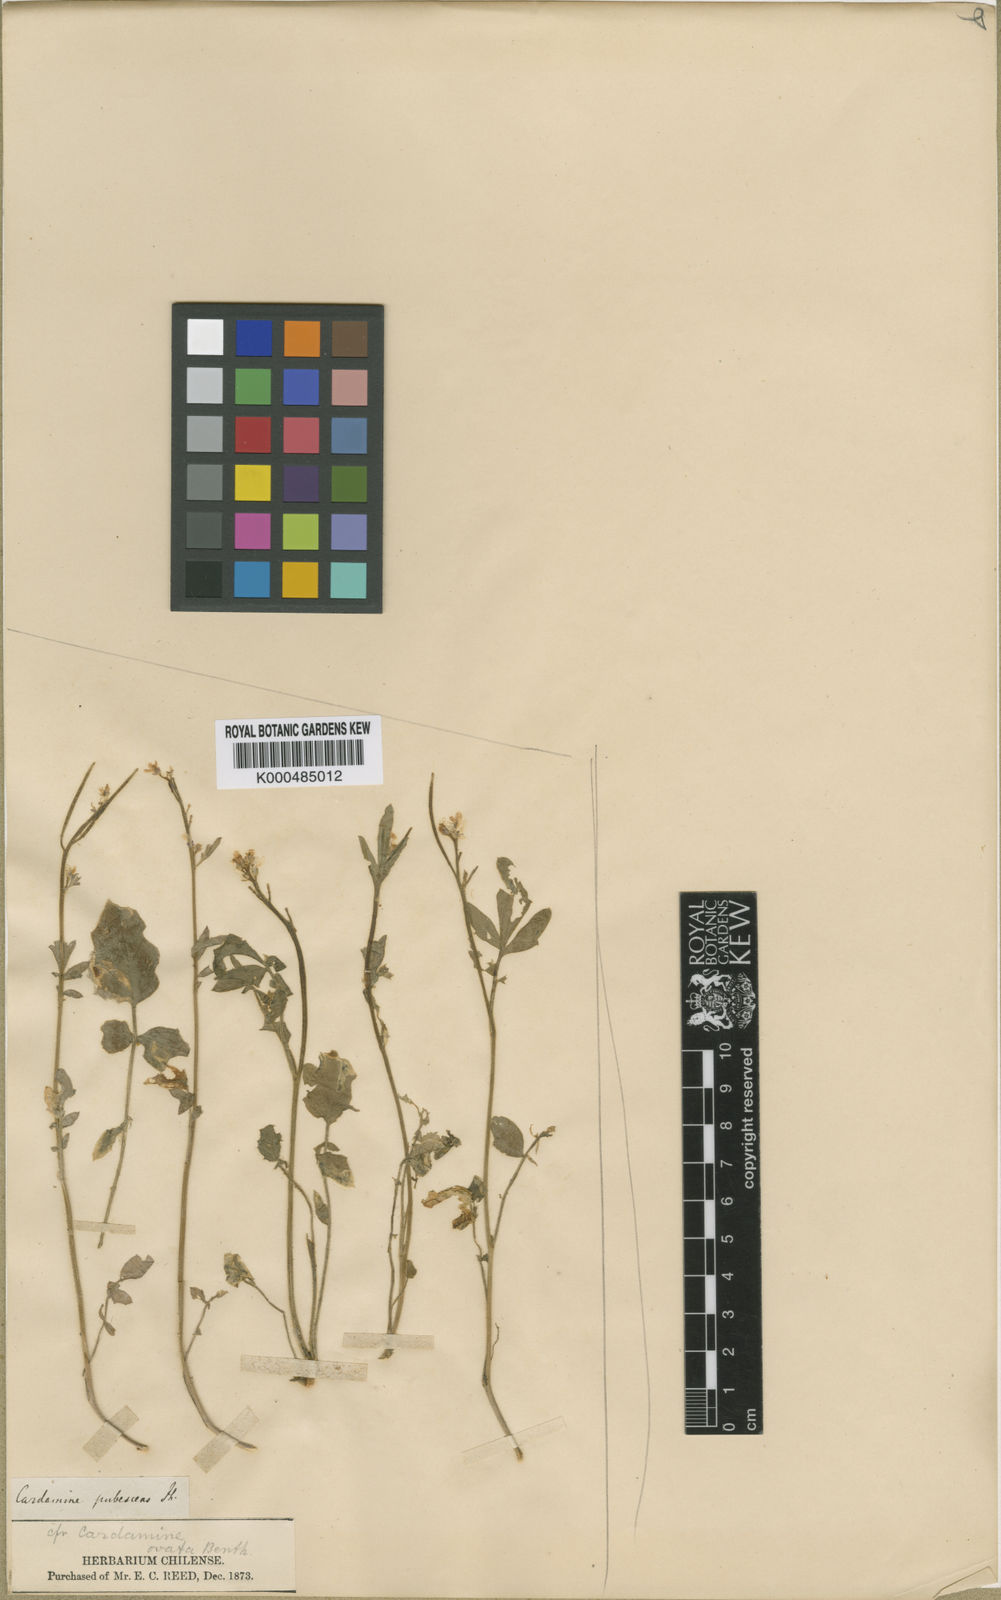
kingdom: Plantae
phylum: Tracheophyta
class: Magnoliopsida
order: Brassicales
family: Brassicaceae
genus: Cardamine
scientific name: Cardamine ovata
